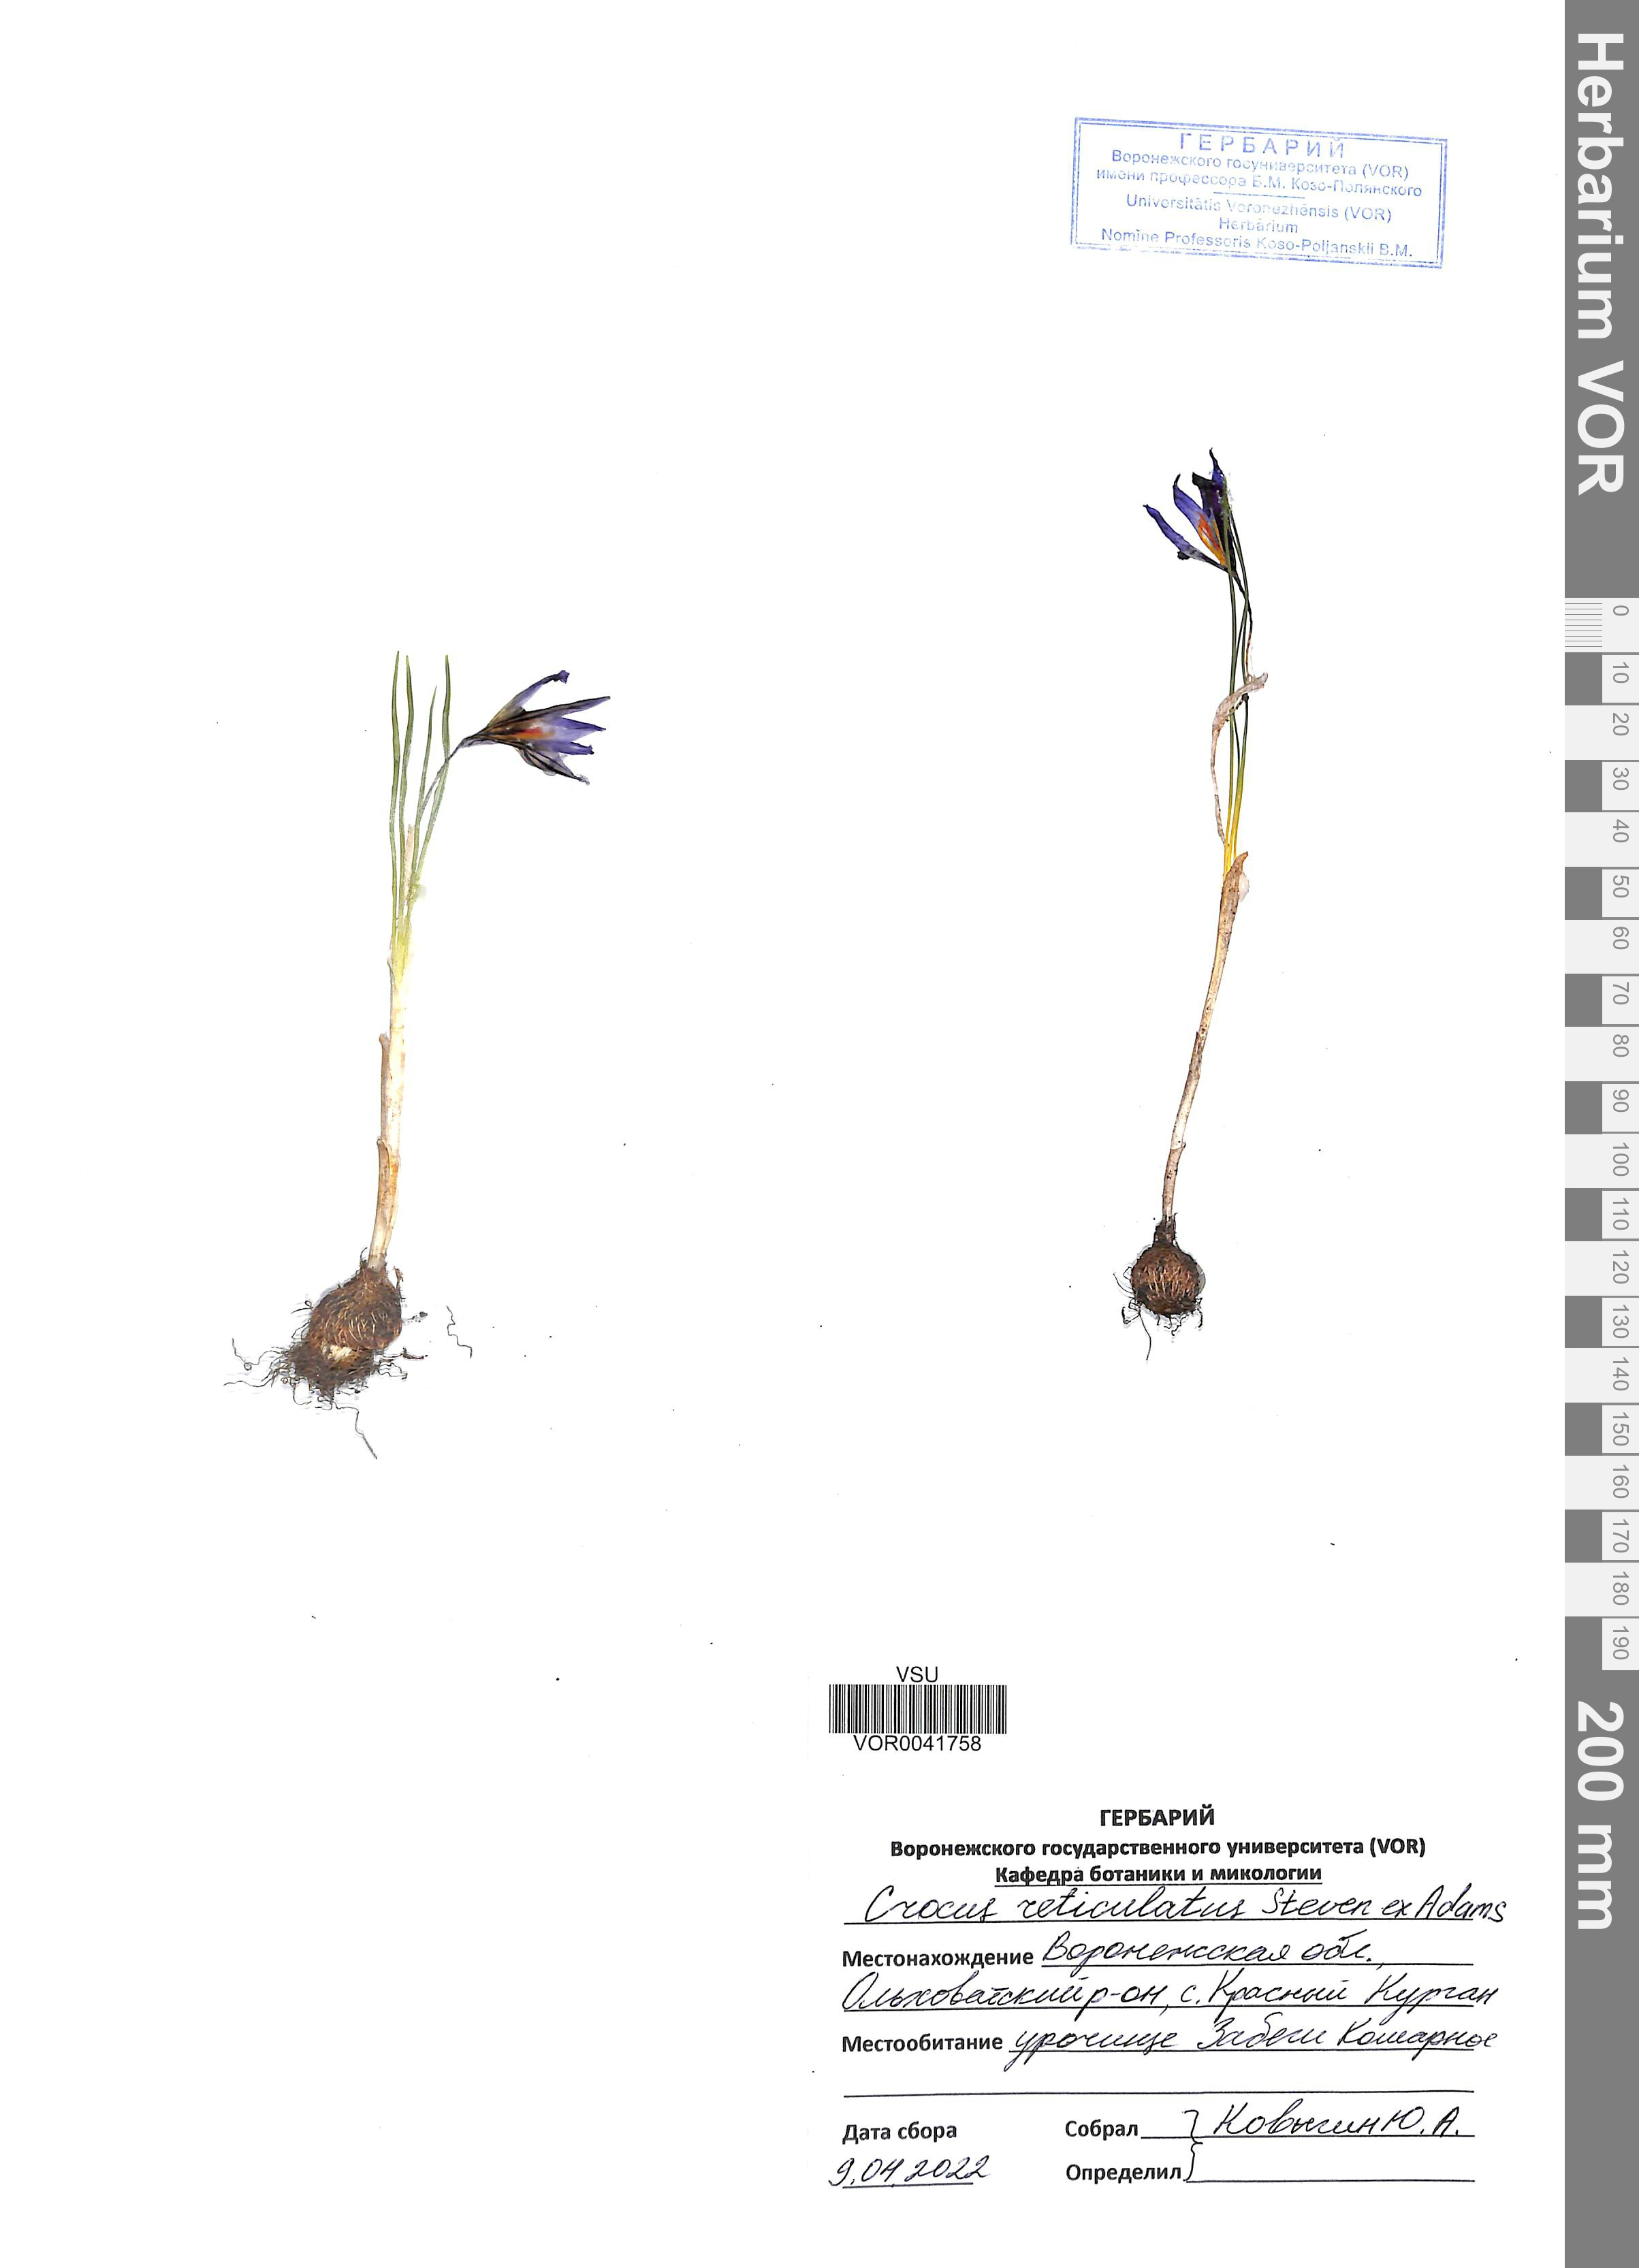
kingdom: Plantae
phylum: Tracheophyta
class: Liliopsida
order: Asparagales
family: Iridaceae
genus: Crocus
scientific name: Crocus reticulatus
